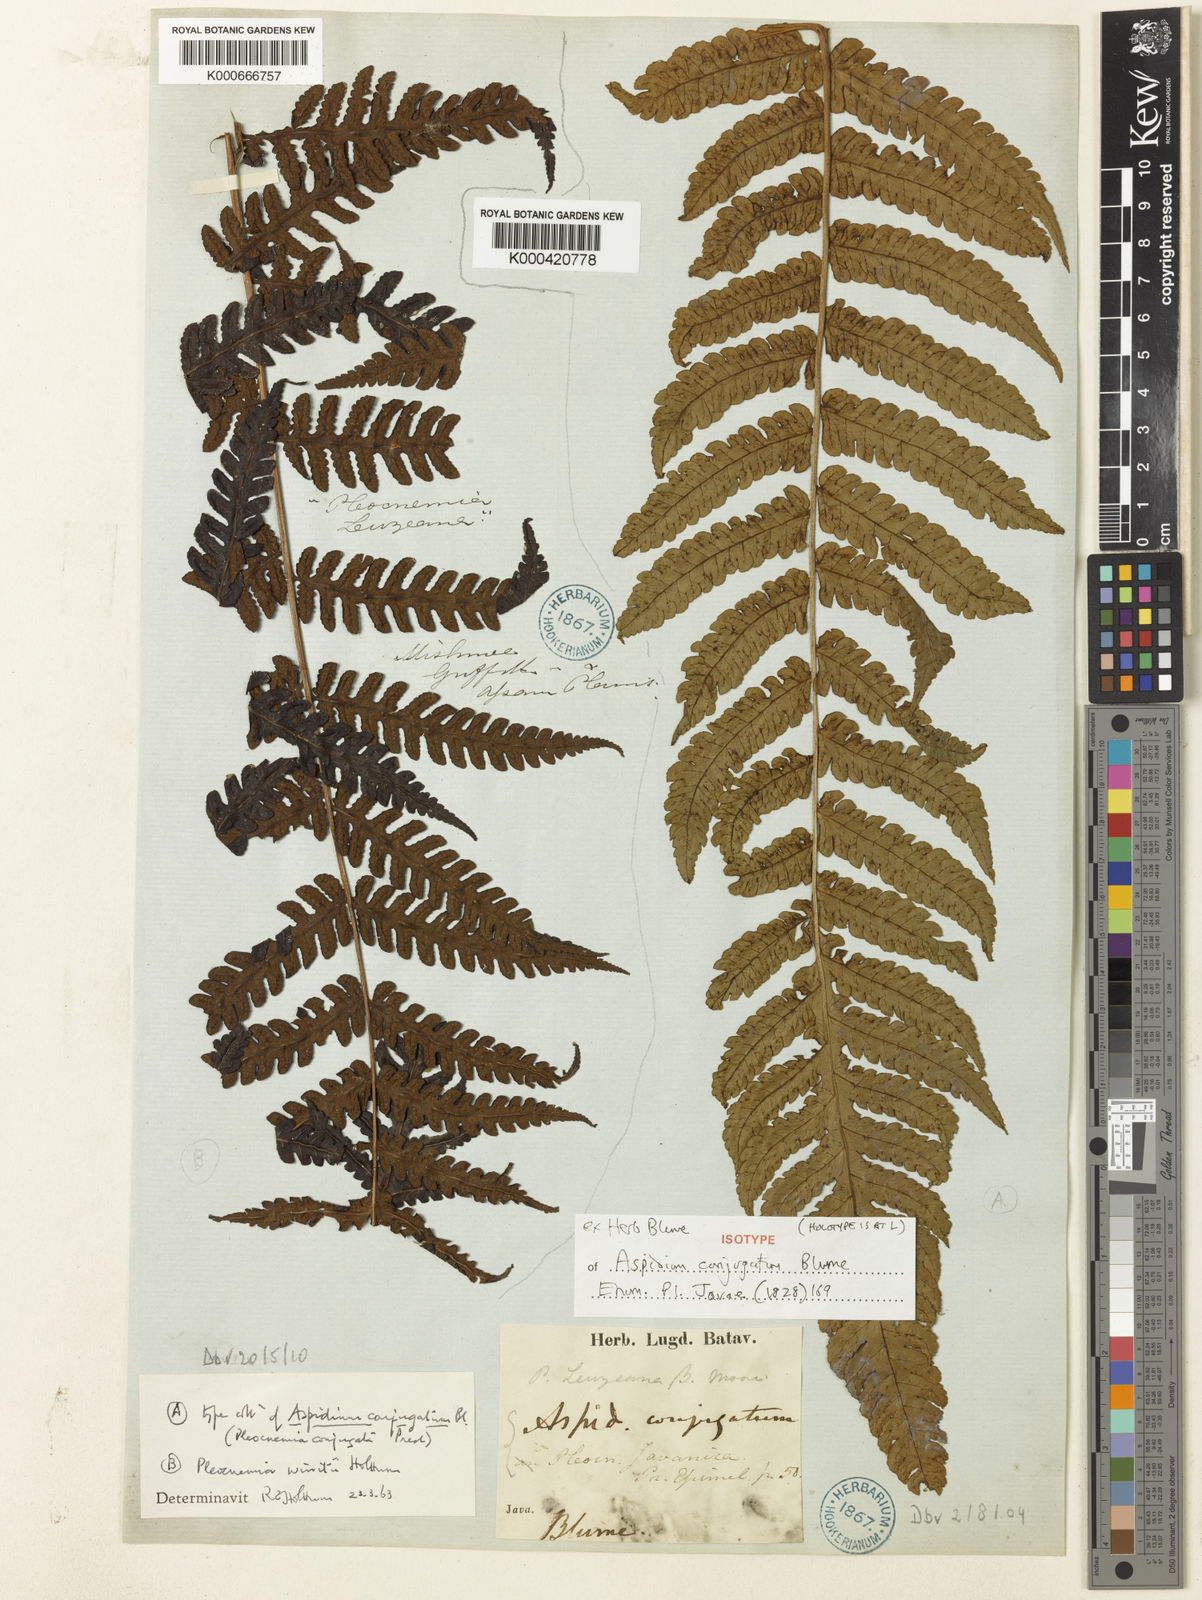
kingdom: Plantae
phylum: Tracheophyta
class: Polypodiopsida
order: Polypodiales
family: Dryopteridaceae
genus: Pleocnemia
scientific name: Pleocnemia conjugata
